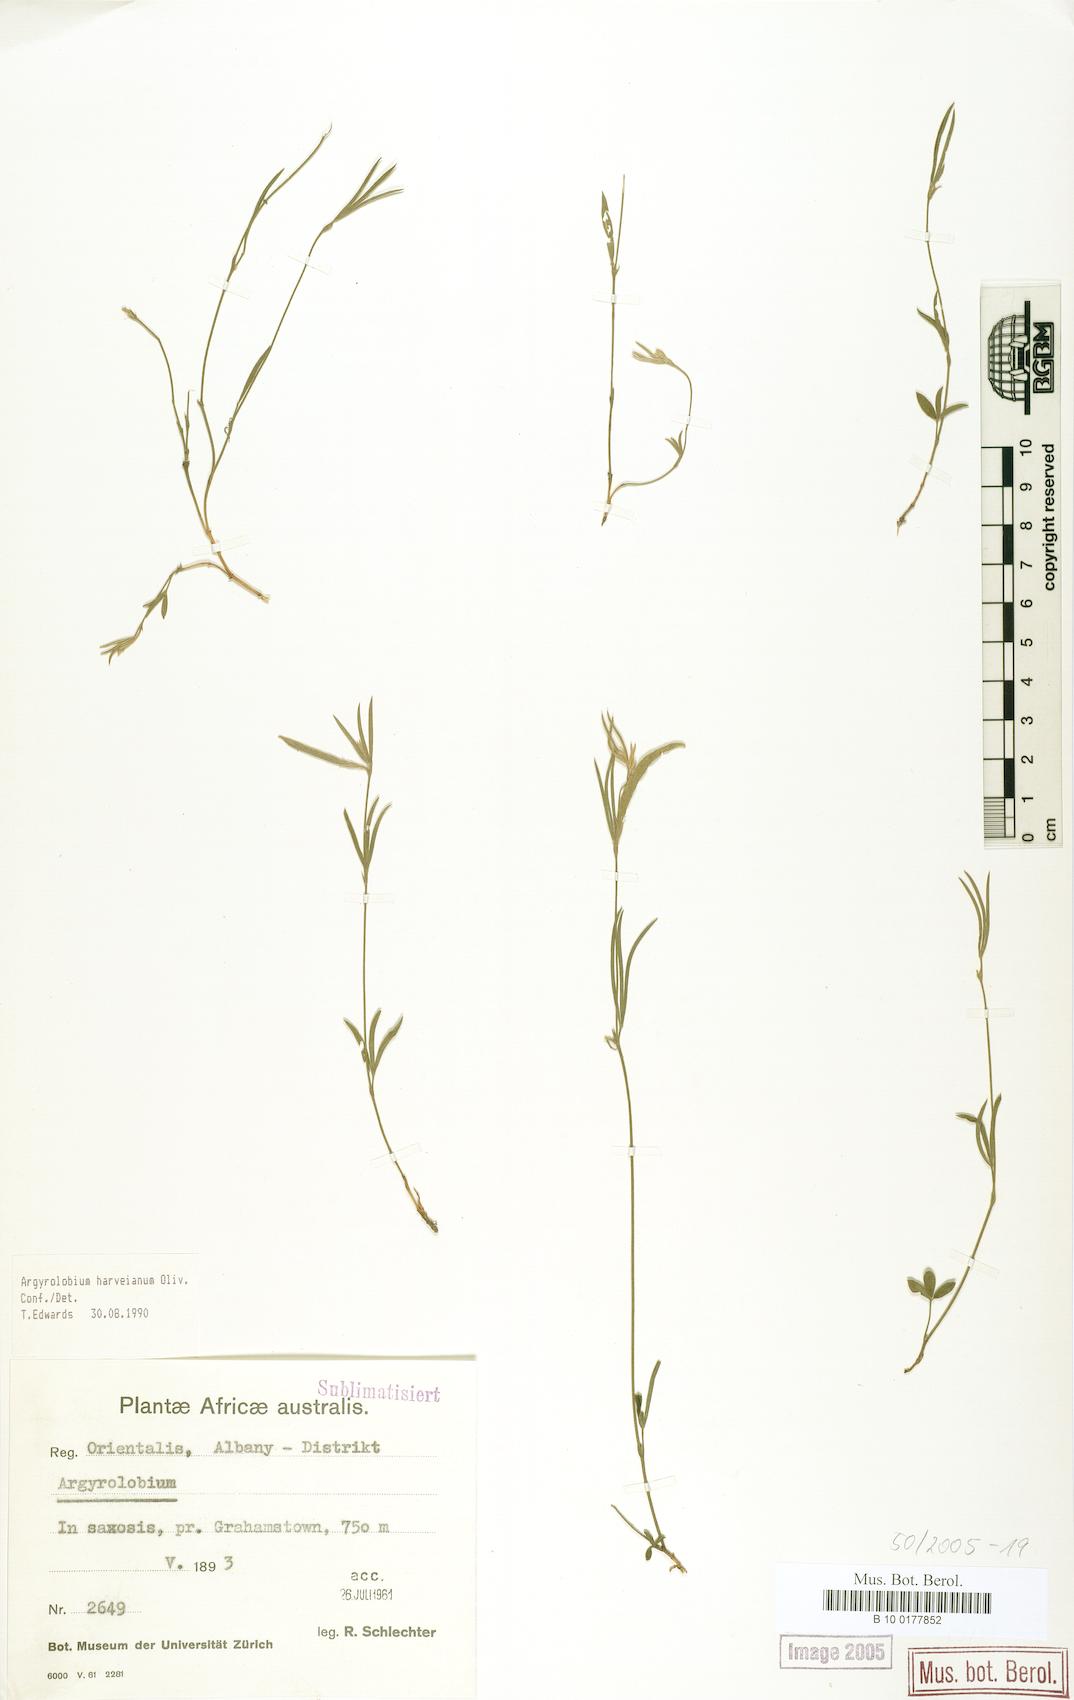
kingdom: Plantae
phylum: Tracheophyta
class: Magnoliopsida
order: Fabales
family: Fabaceae
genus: Argyrolobium
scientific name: Argyrolobium harveyanum
